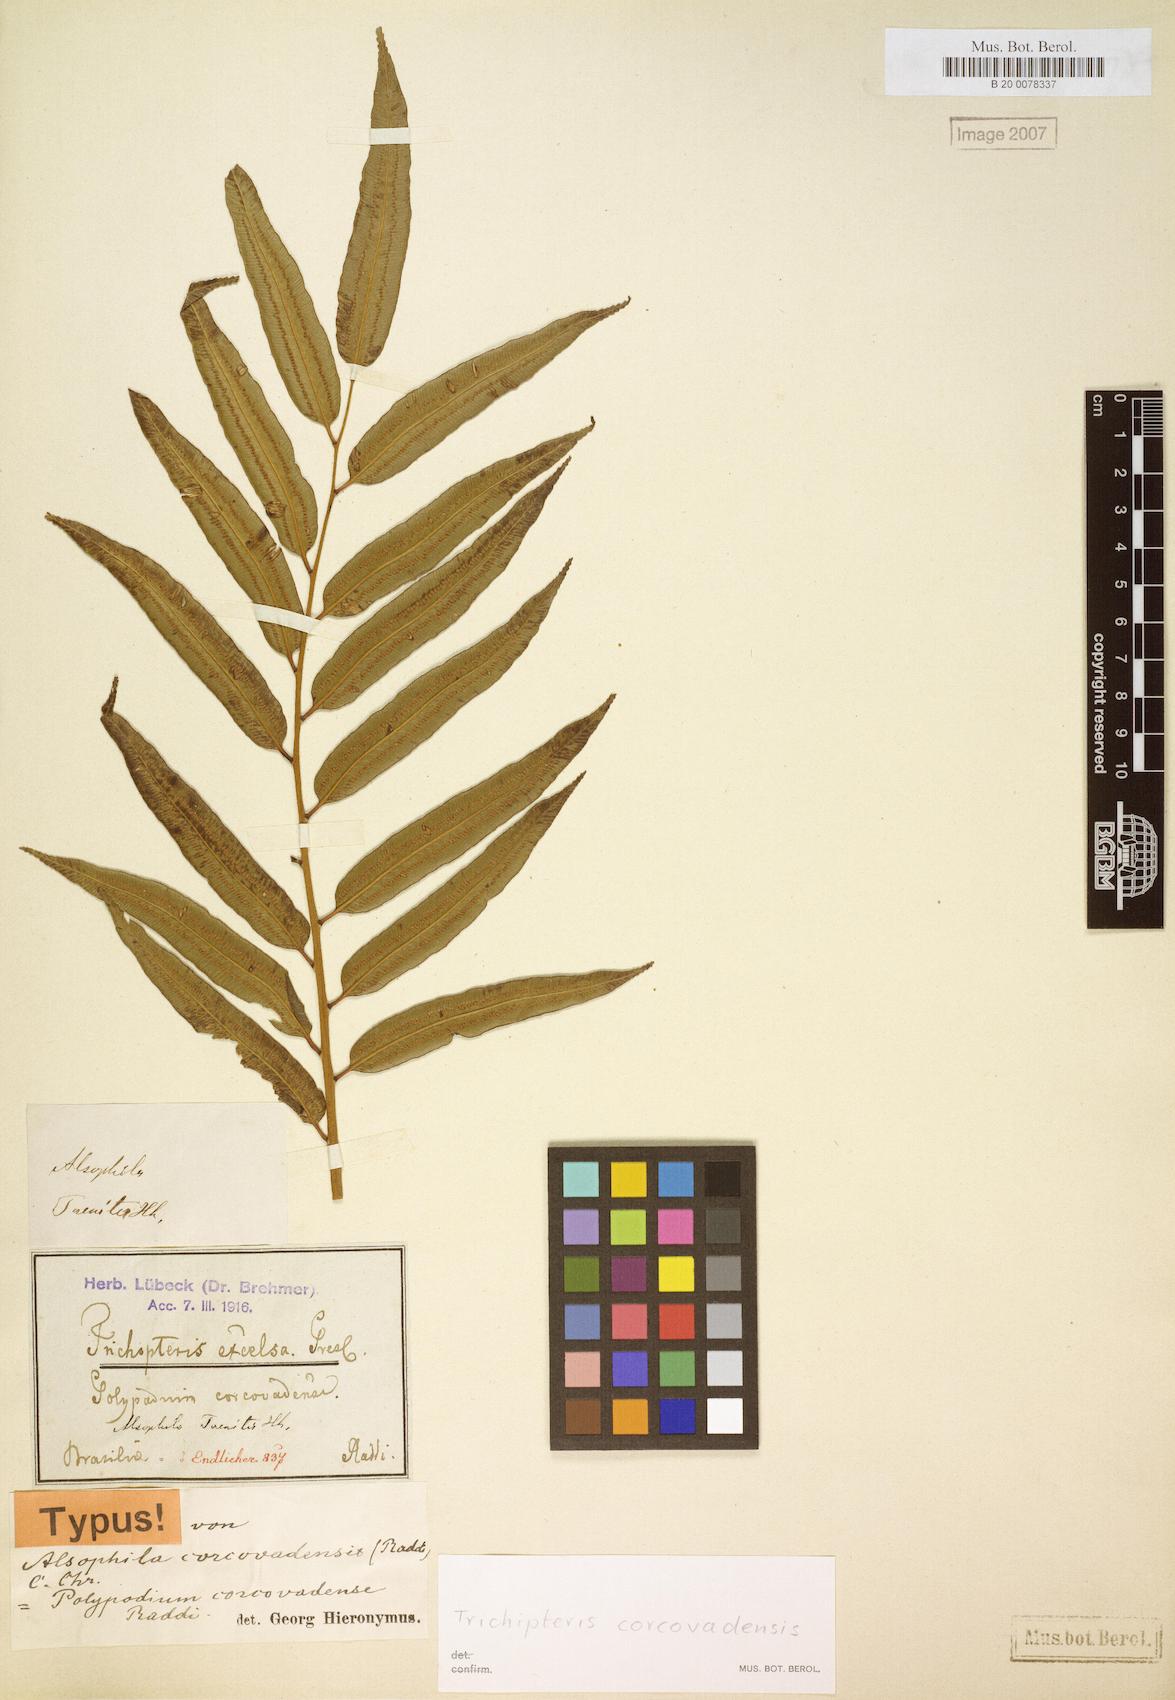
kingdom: Plantae
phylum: Tracheophyta
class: Polypodiopsida
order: Cyatheales
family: Cyatheaceae
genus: Cyathea
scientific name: Cyathea corcovadensis
